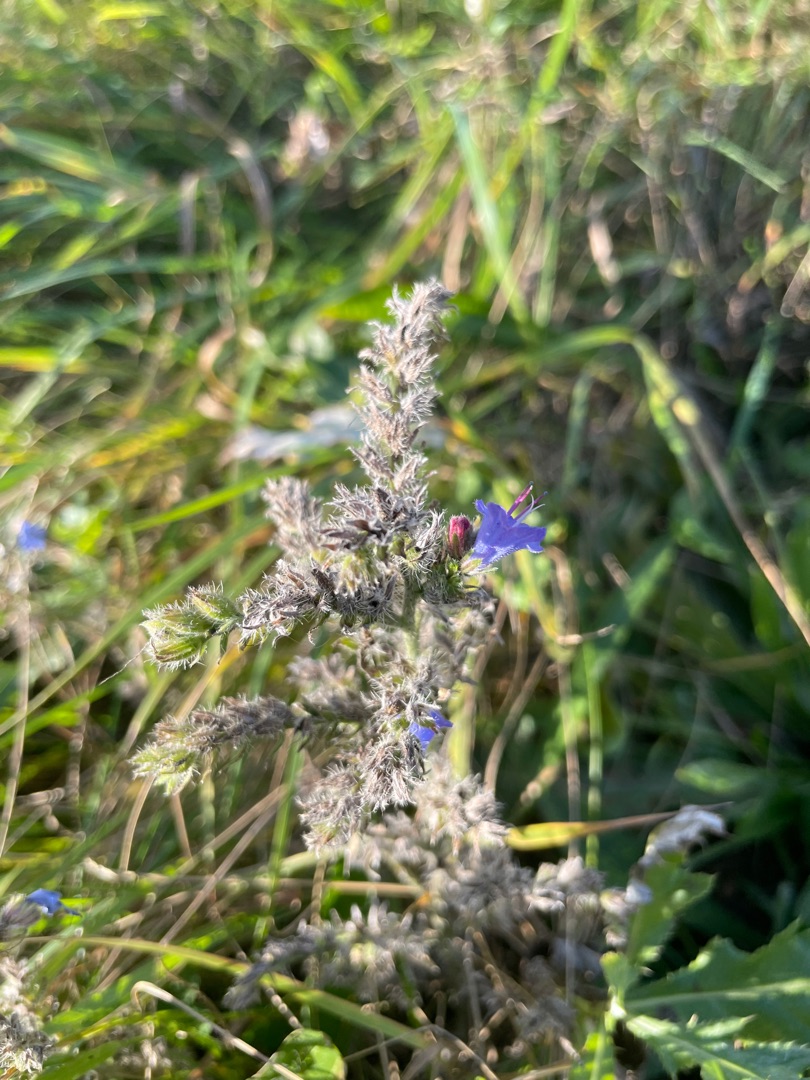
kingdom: Plantae
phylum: Tracheophyta
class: Magnoliopsida
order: Boraginales
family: Boraginaceae
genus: Echium
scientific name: Echium vulgare
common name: Slangehoved
